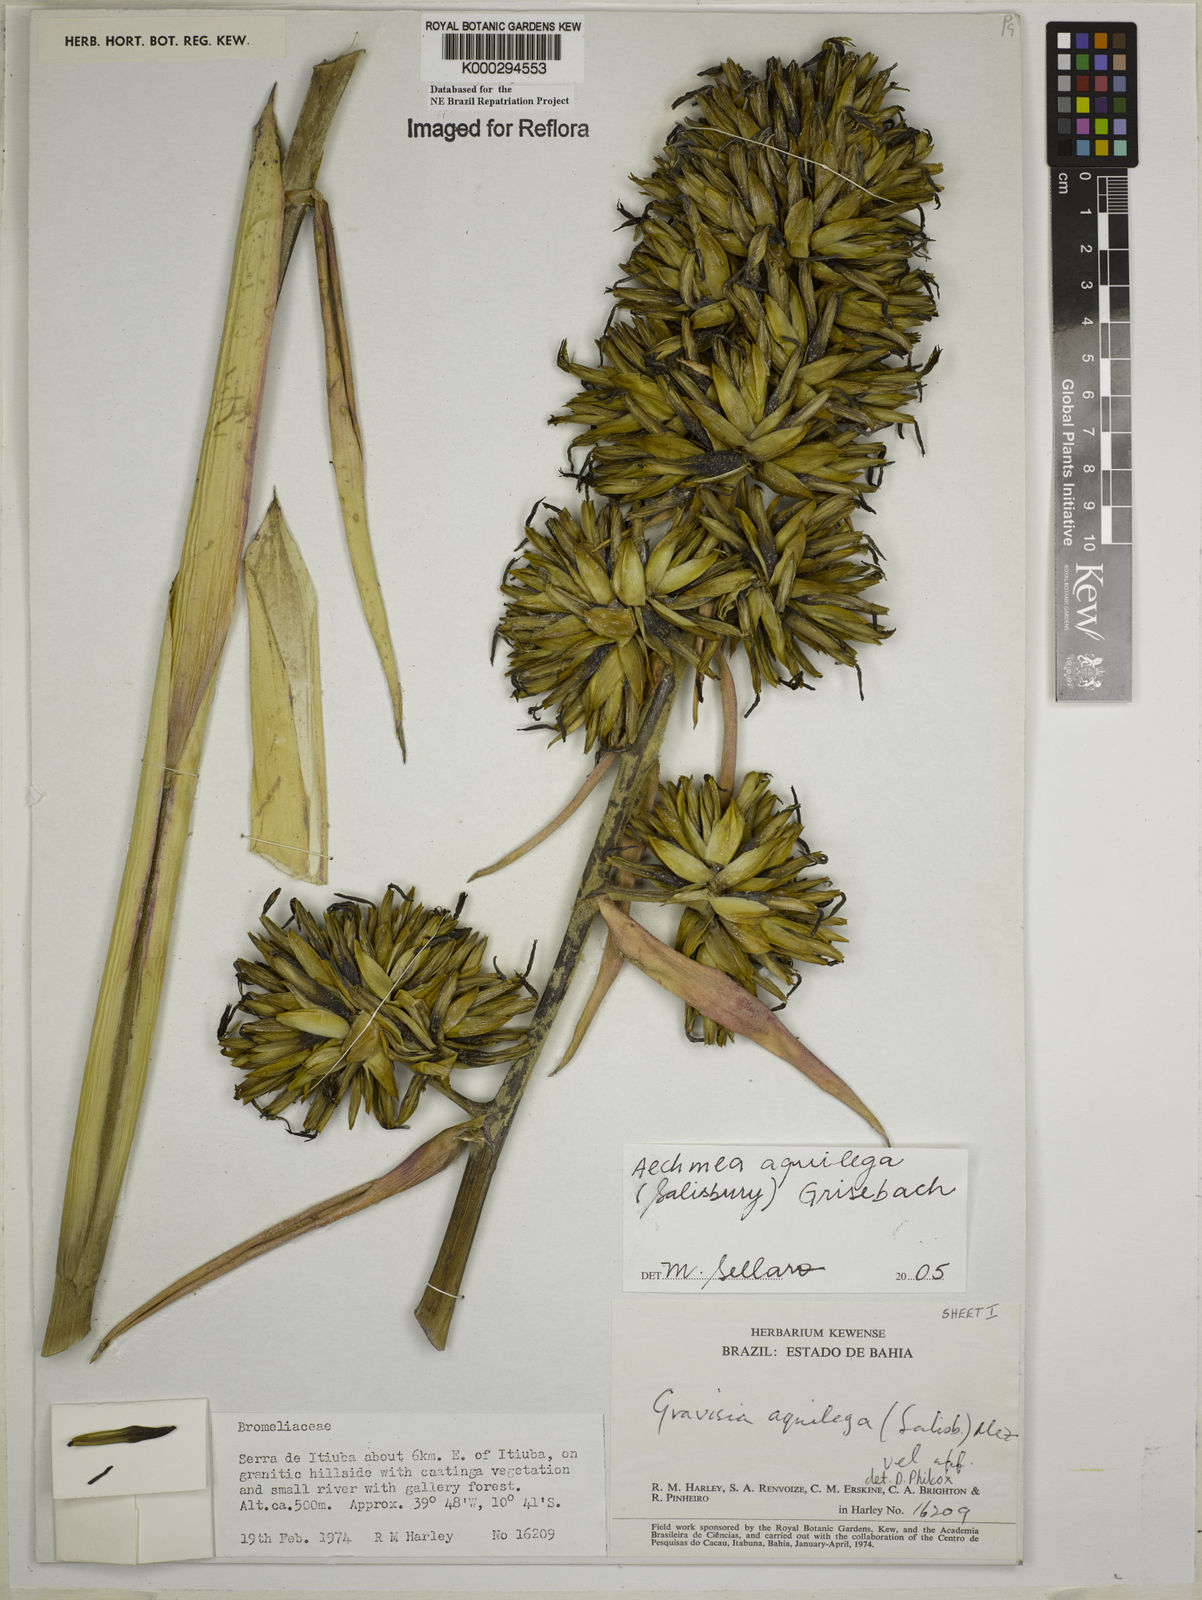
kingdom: Plantae
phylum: Tracheophyta
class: Liliopsida
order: Poales
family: Bromeliaceae
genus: Aechmea
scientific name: Aechmea aquilega
